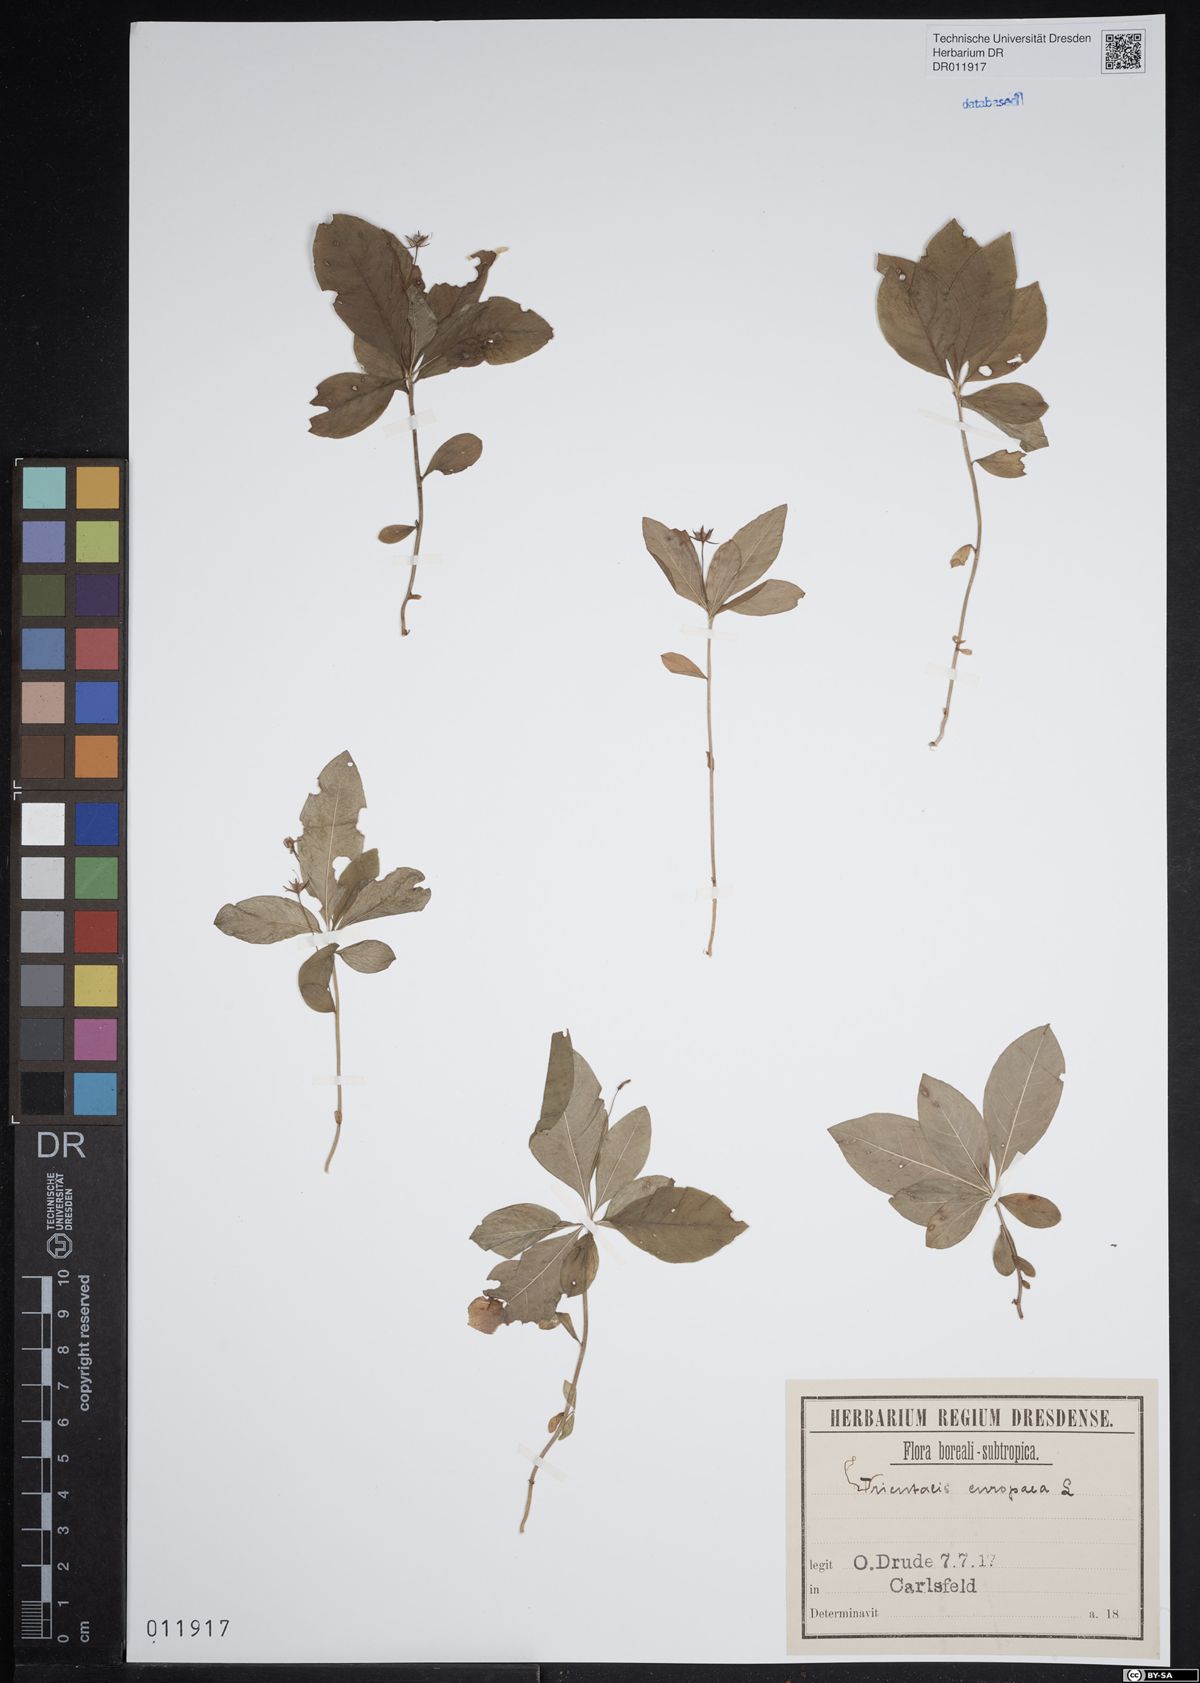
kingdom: Plantae
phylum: Tracheophyta
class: Magnoliopsida
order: Ericales
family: Primulaceae
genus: Lysimachia
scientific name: Lysimachia europaea
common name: Arctic starflower
